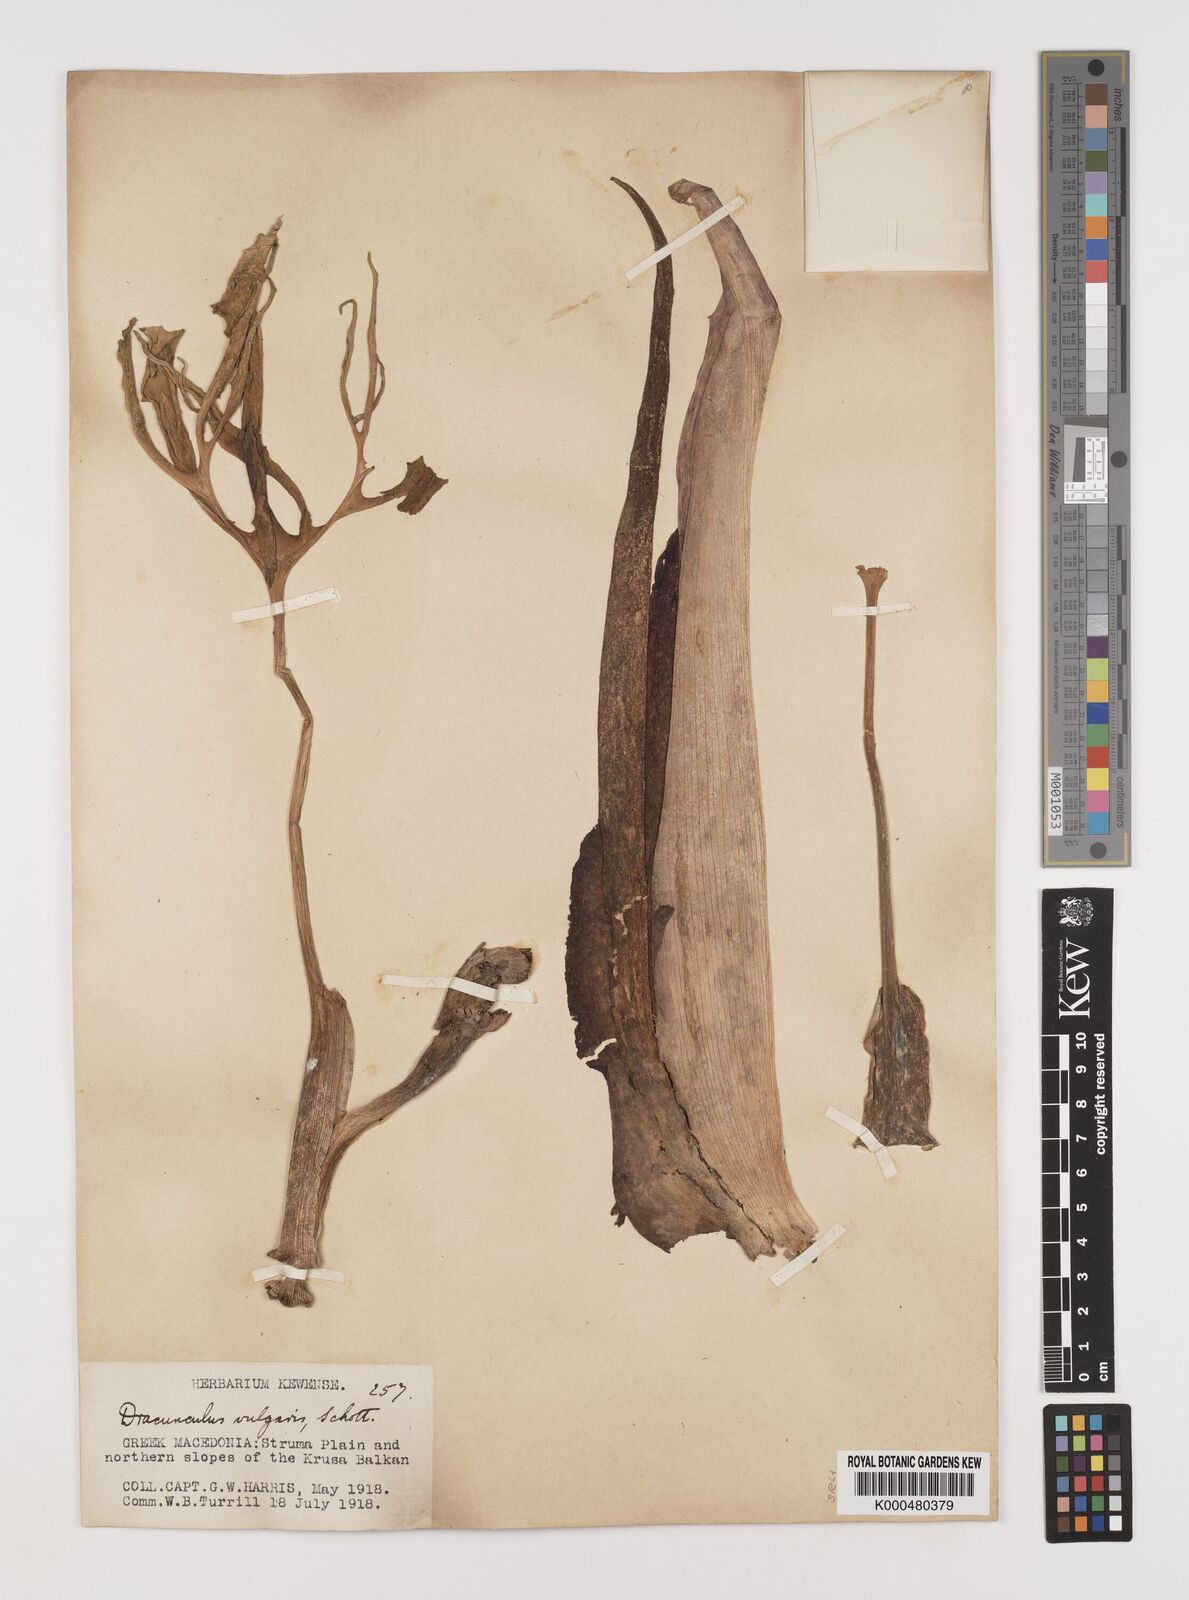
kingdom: Plantae
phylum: Tracheophyta
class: Liliopsida
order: Alismatales
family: Araceae
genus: Dracunculus
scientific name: Dracunculus vulgaris
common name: Dragon arum
